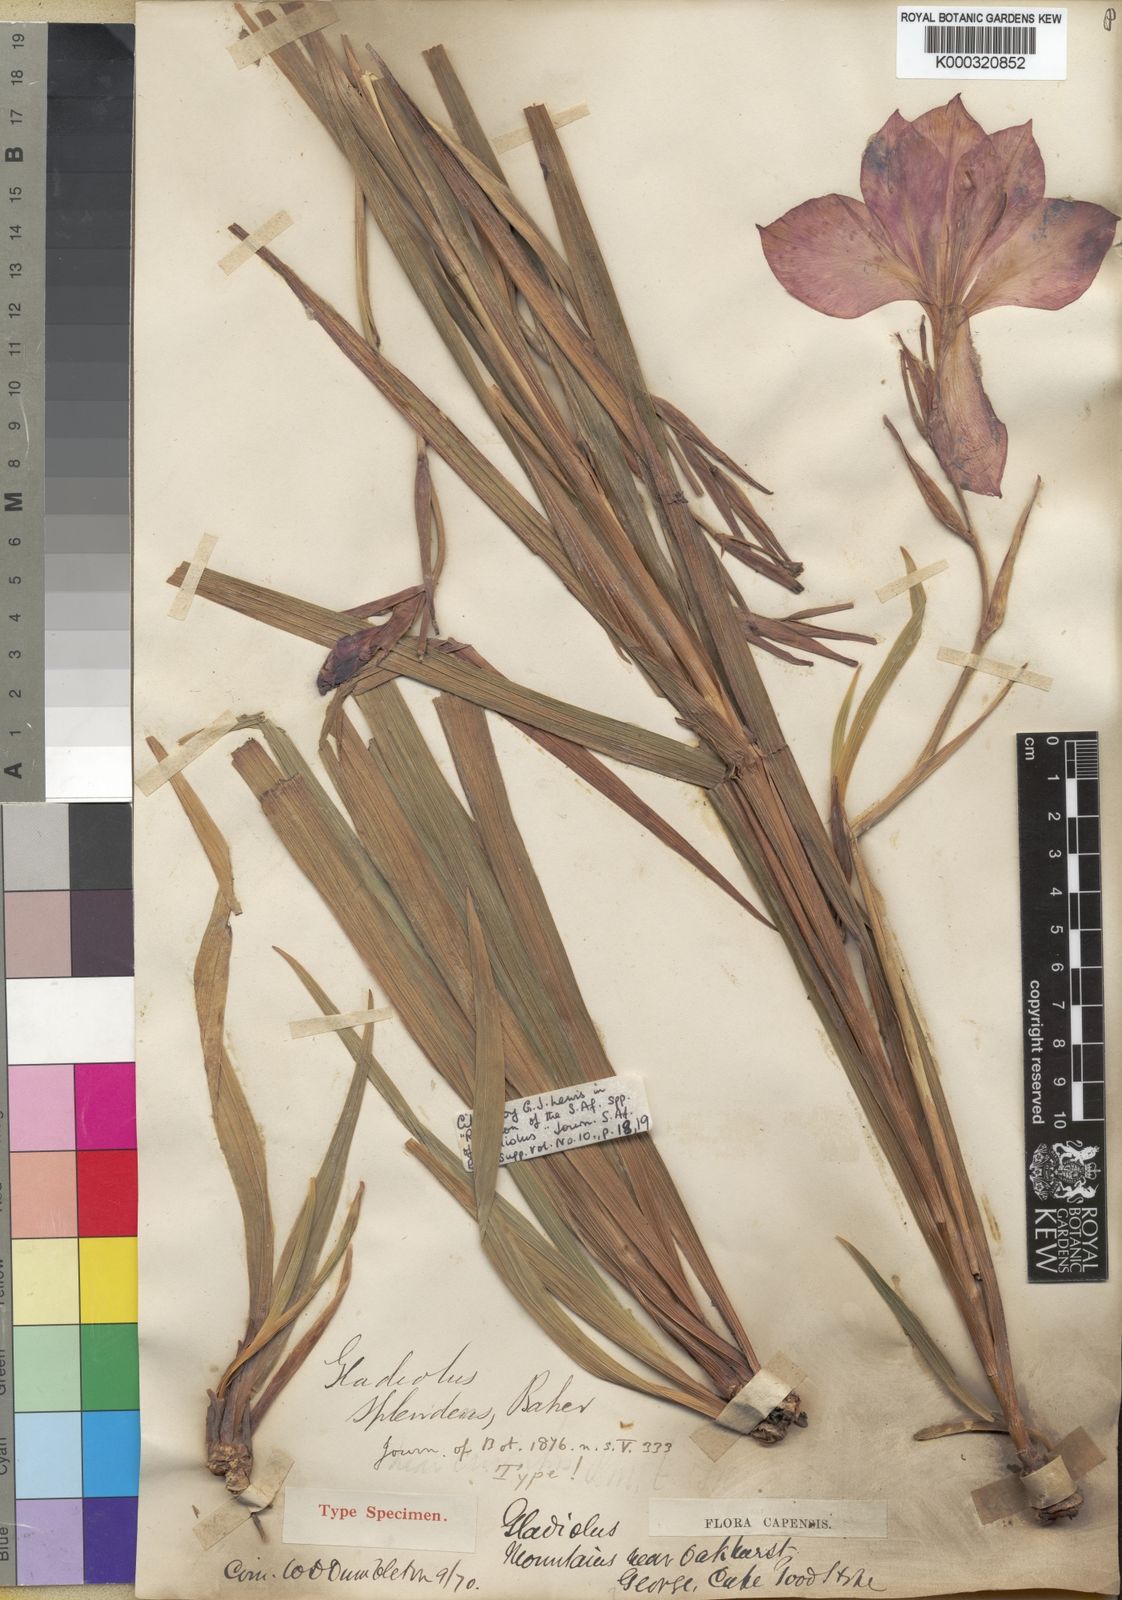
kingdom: Plantae
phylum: Tracheophyta
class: Liliopsida
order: Asparagales
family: Iridaceae
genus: Gladiolus
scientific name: Gladiolus sempervirens
